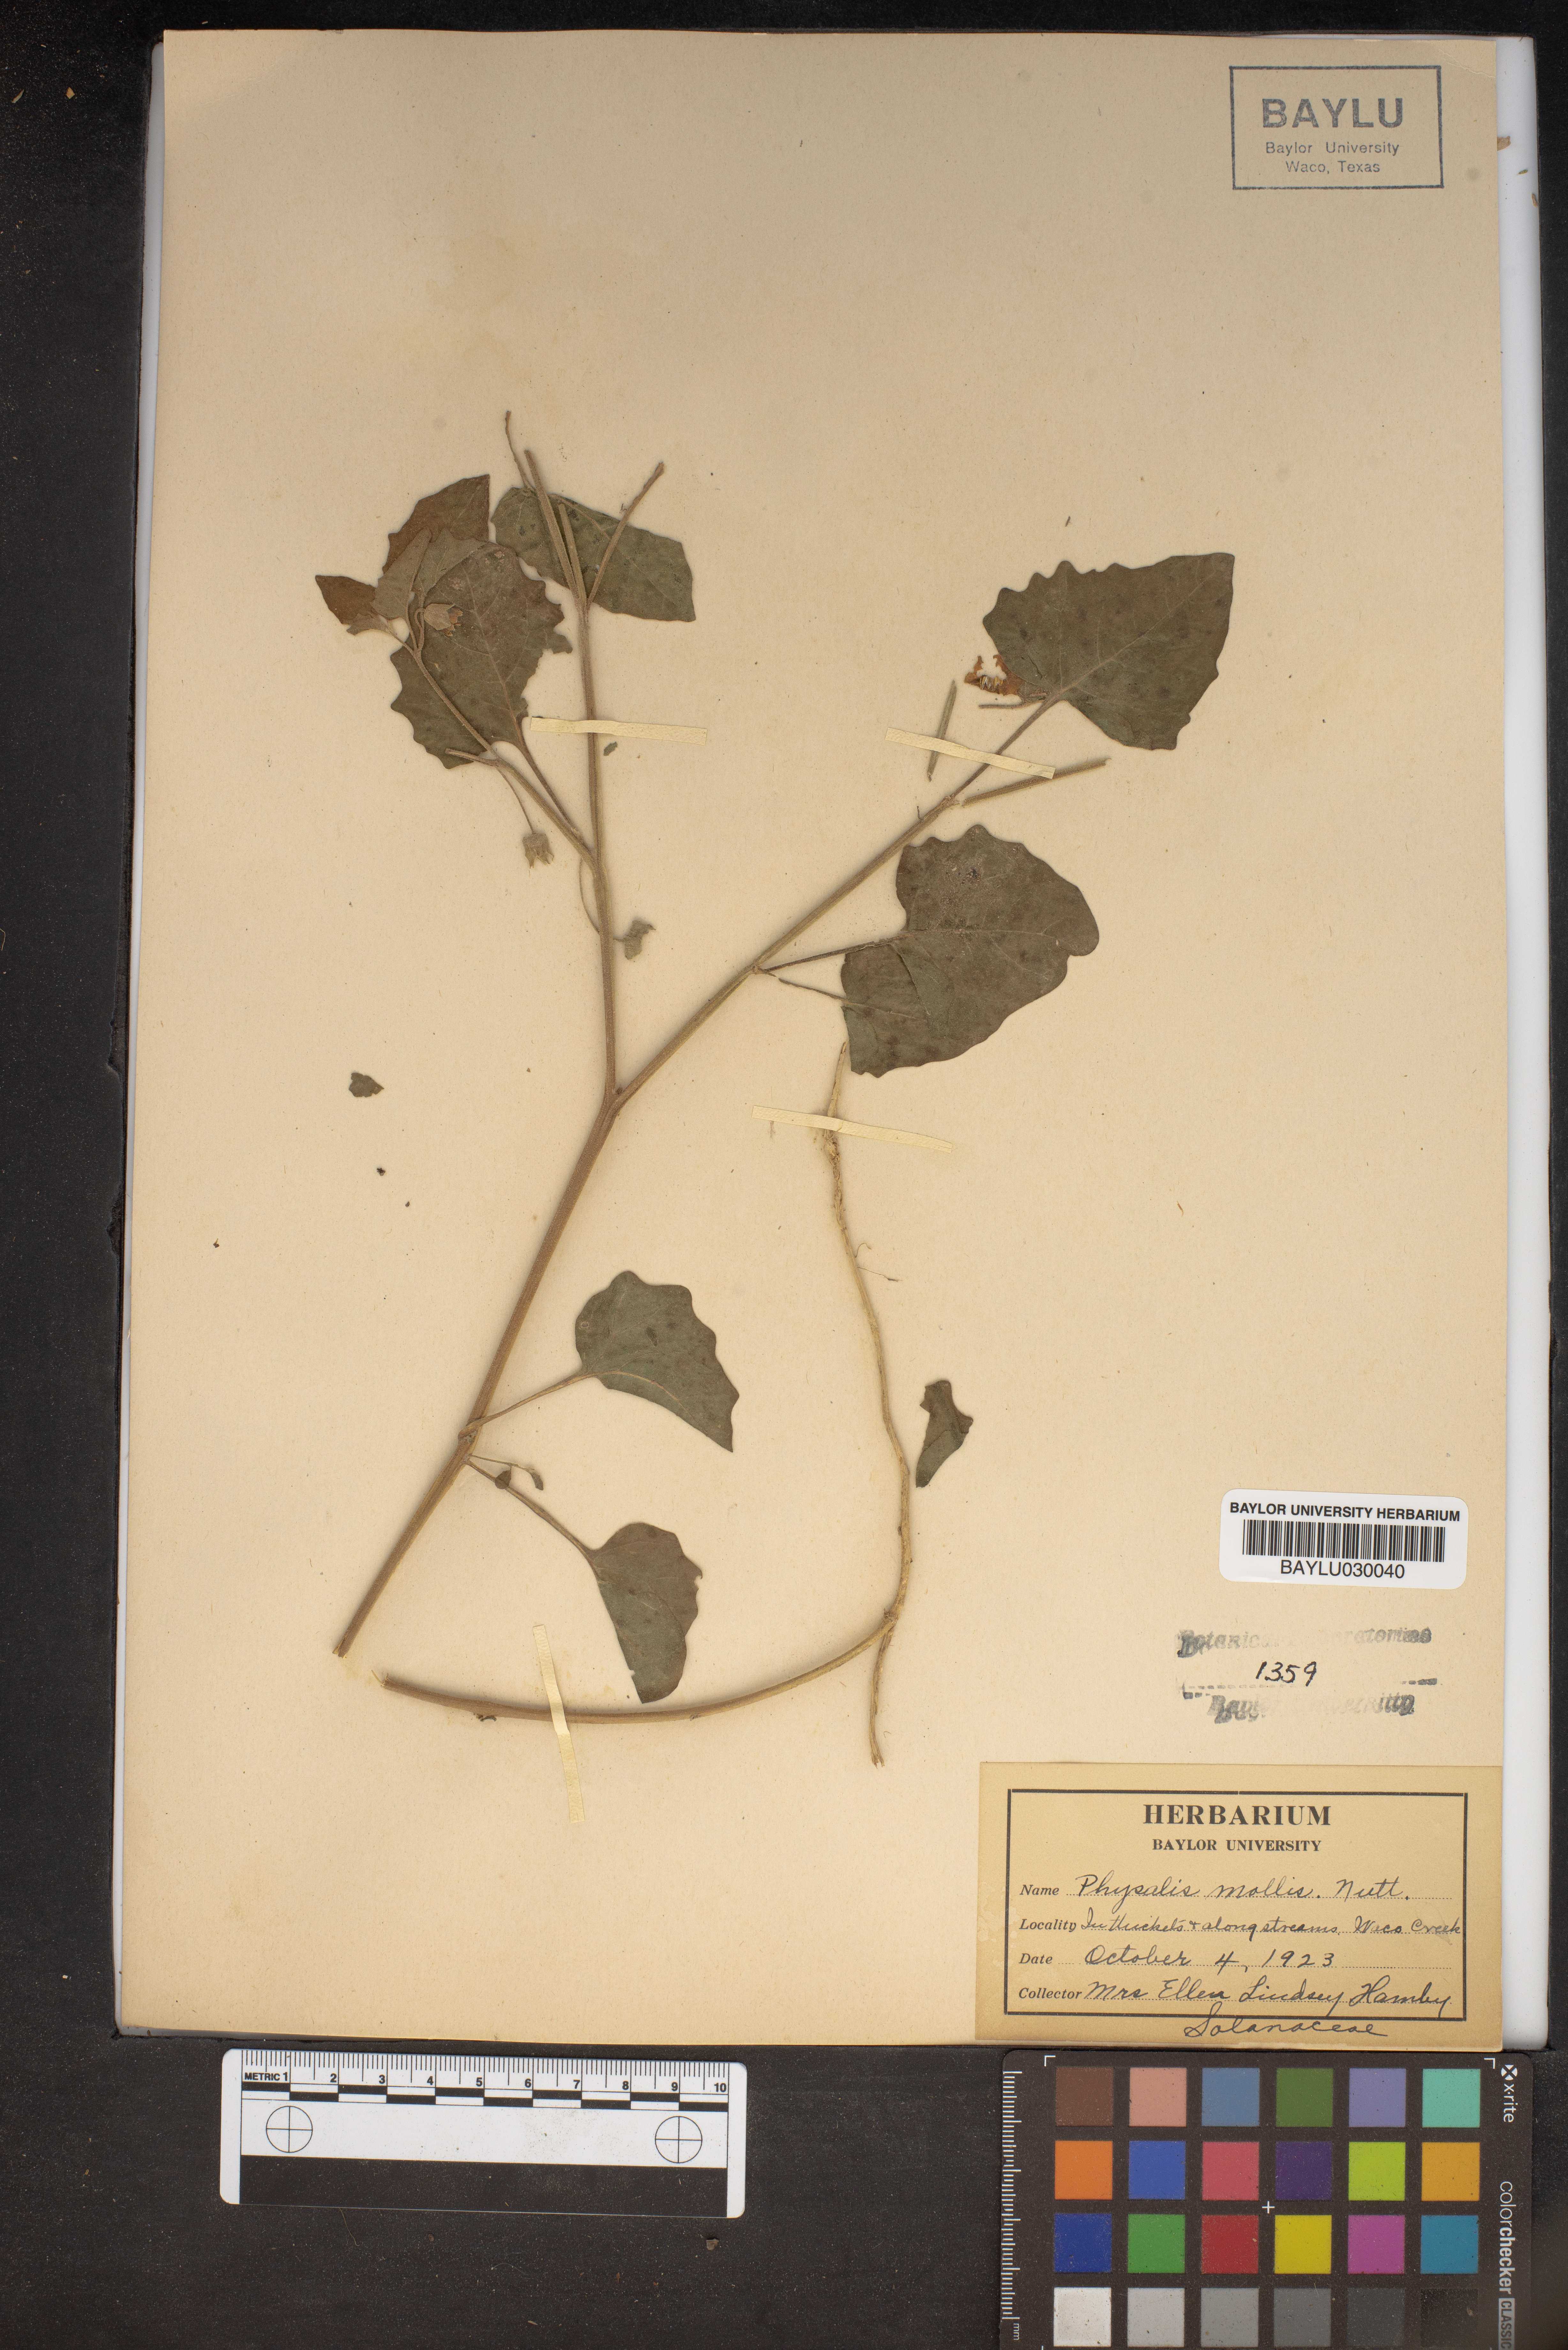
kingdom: Plantae
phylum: Tracheophyta
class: Magnoliopsida
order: Solanales
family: Solanaceae
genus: Physalis
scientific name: Physalis mollis
